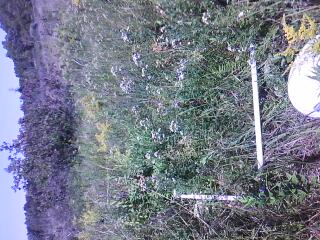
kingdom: Plantae
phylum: Tracheophyta
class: Magnoliopsida
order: Cornales
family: Cornaceae
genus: Cornus
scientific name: Cornus foemina
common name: Swamp dogwood
